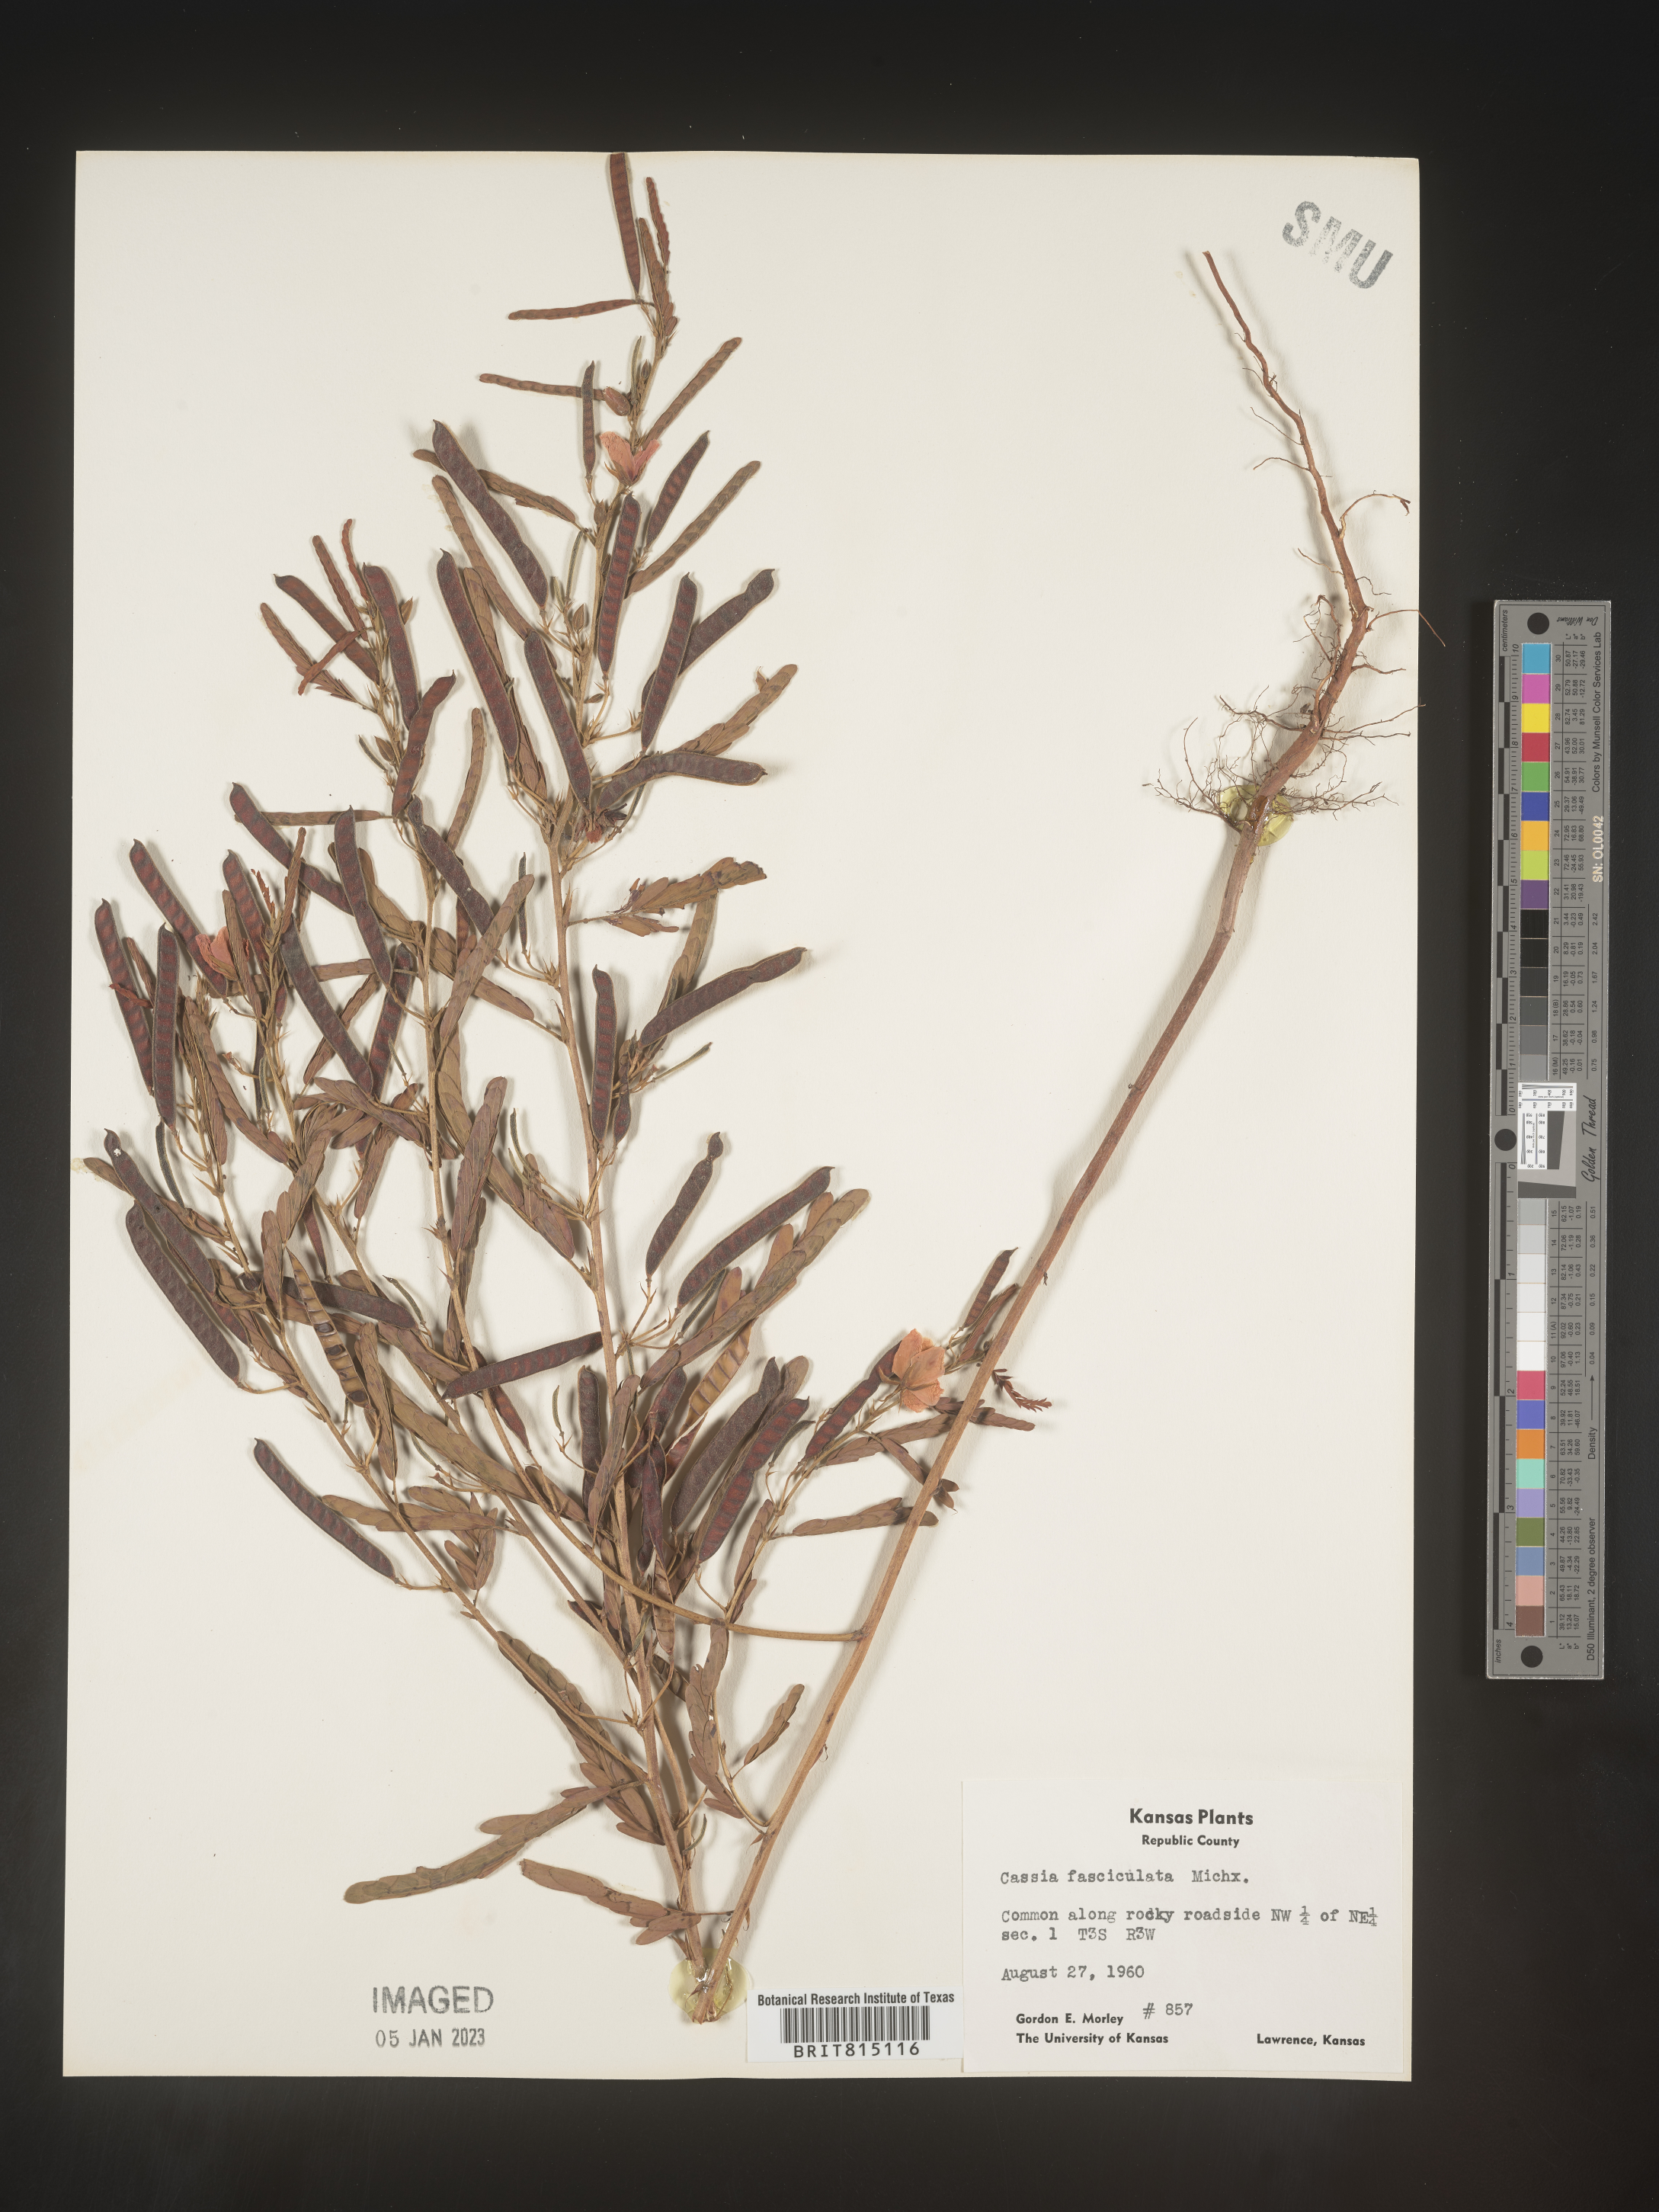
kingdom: Plantae
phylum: Tracheophyta
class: Magnoliopsida
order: Fabales
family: Fabaceae
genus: Chamaecrista
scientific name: Chamaecrista fasciculata
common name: Golden cassia
